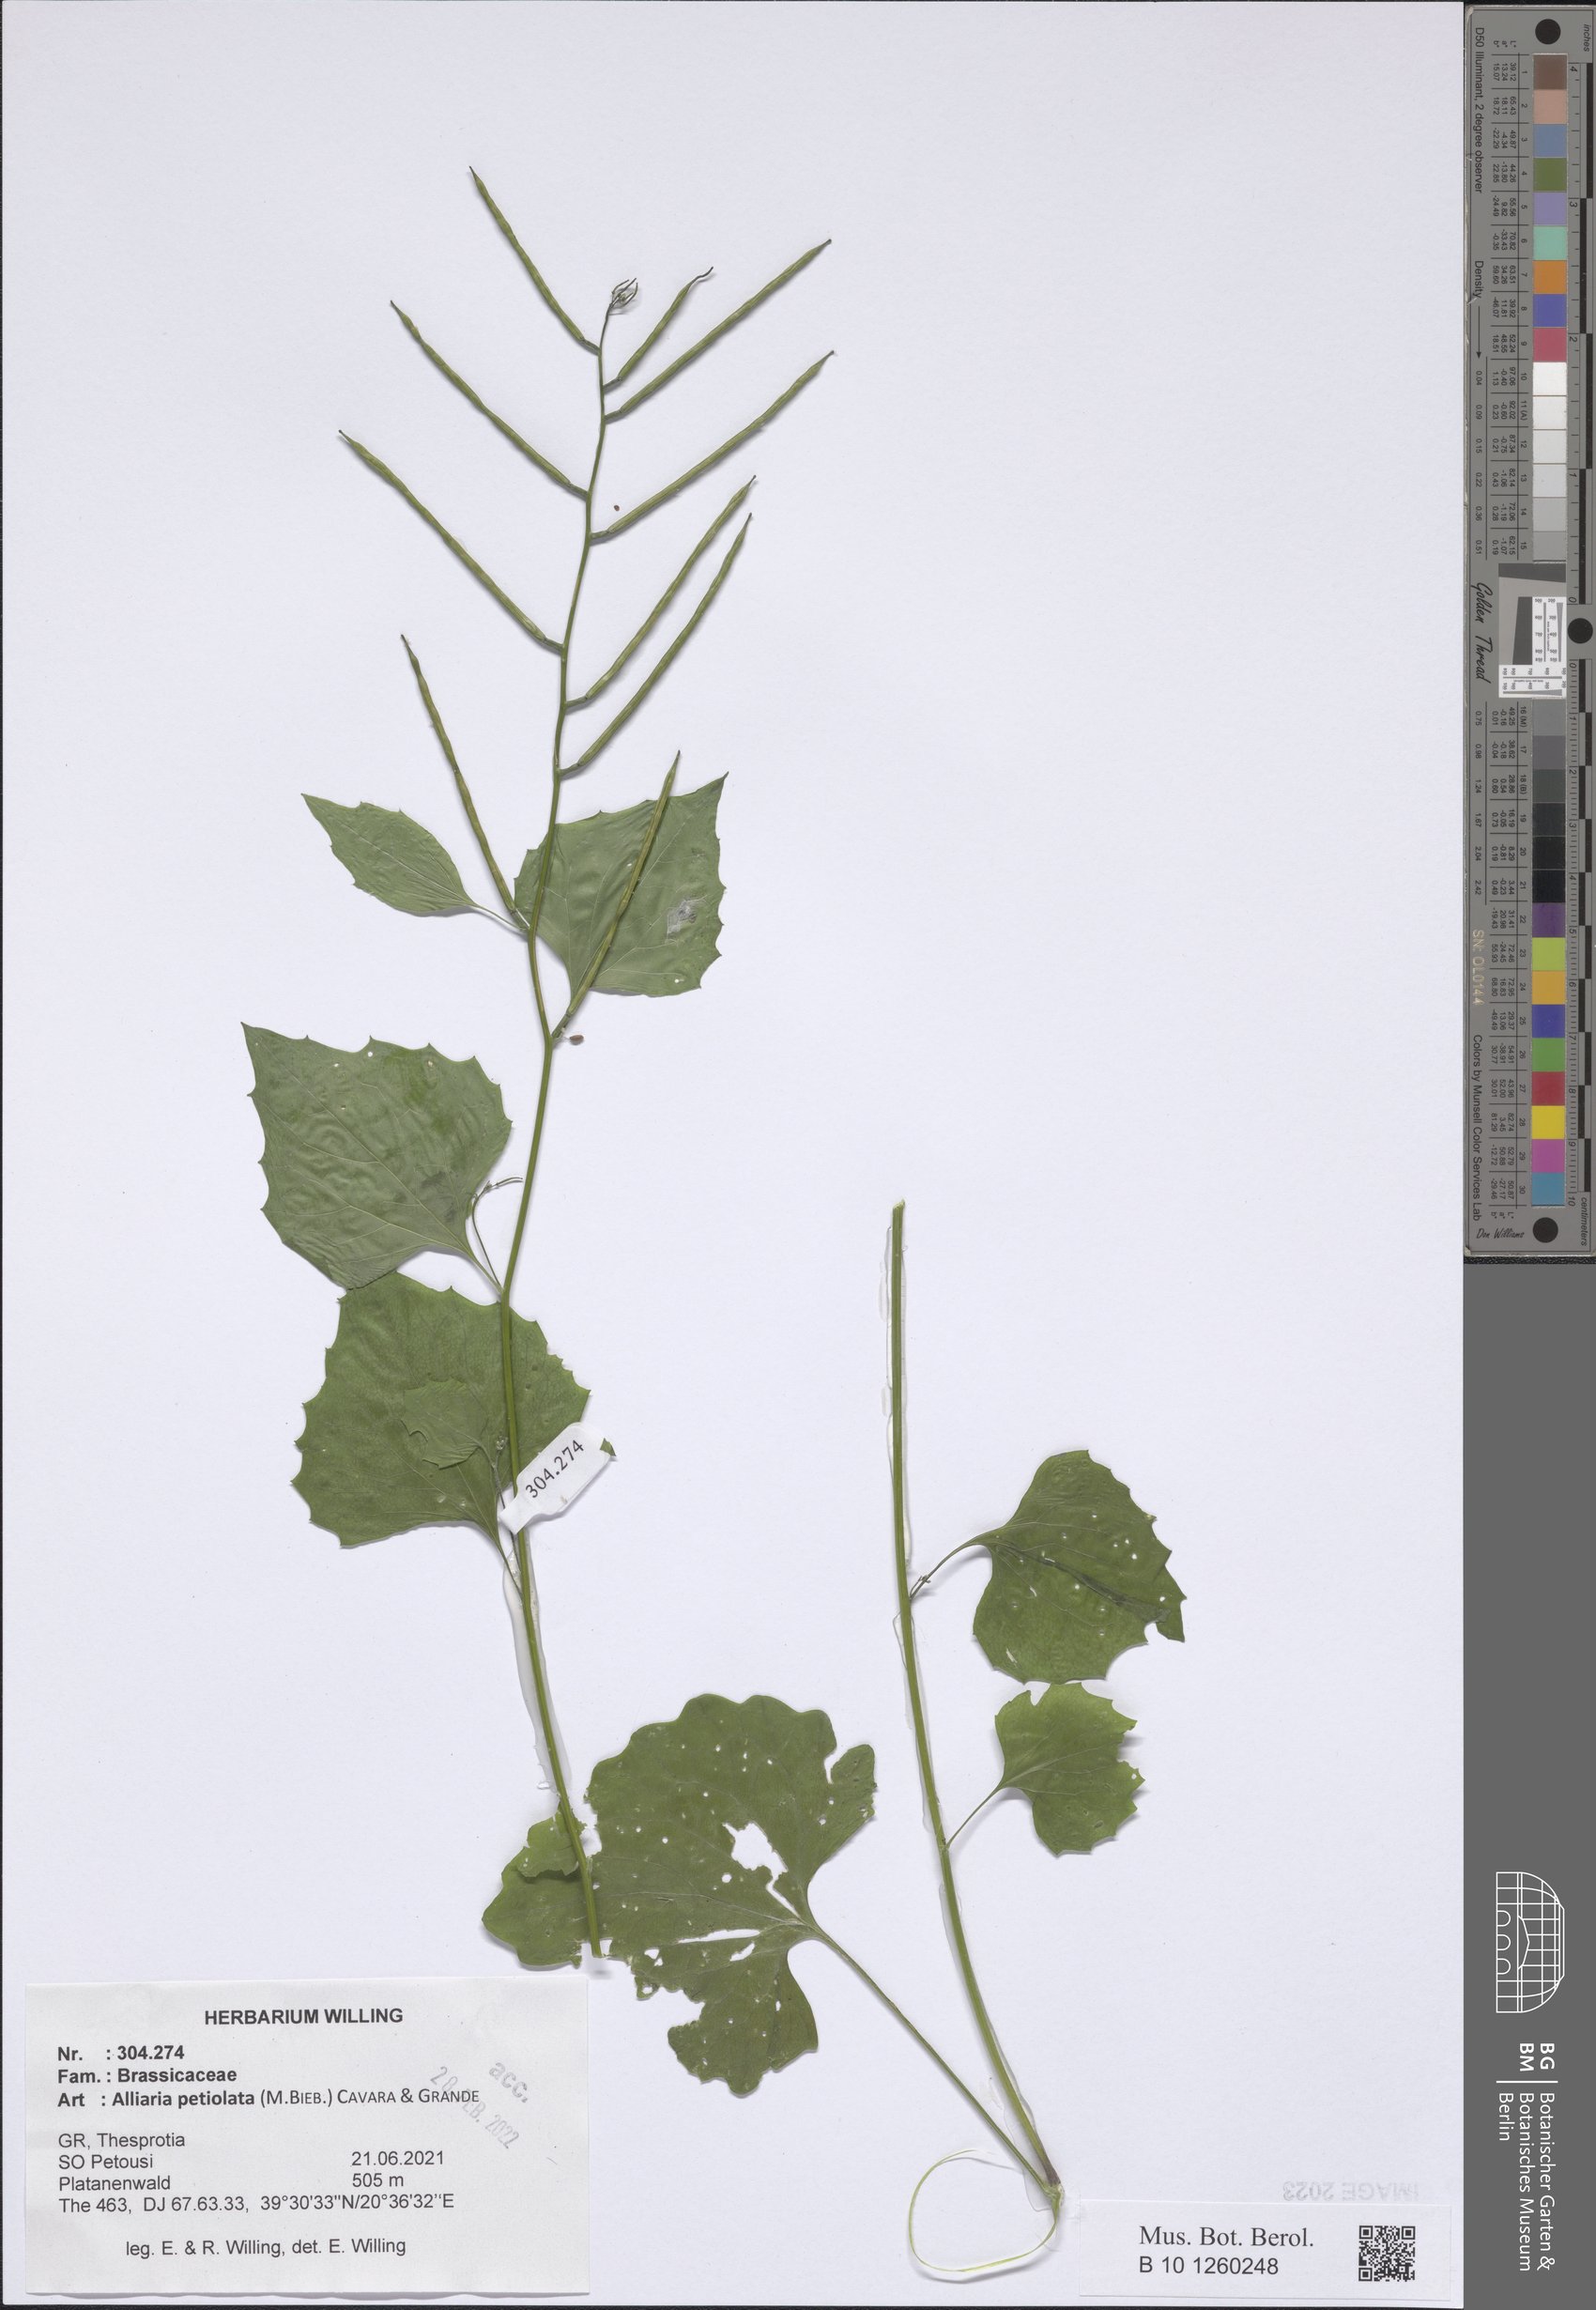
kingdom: Plantae
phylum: Tracheophyta
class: Magnoliopsida
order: Brassicales
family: Brassicaceae
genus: Alliaria
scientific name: Alliaria petiolata
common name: Garlic mustard
